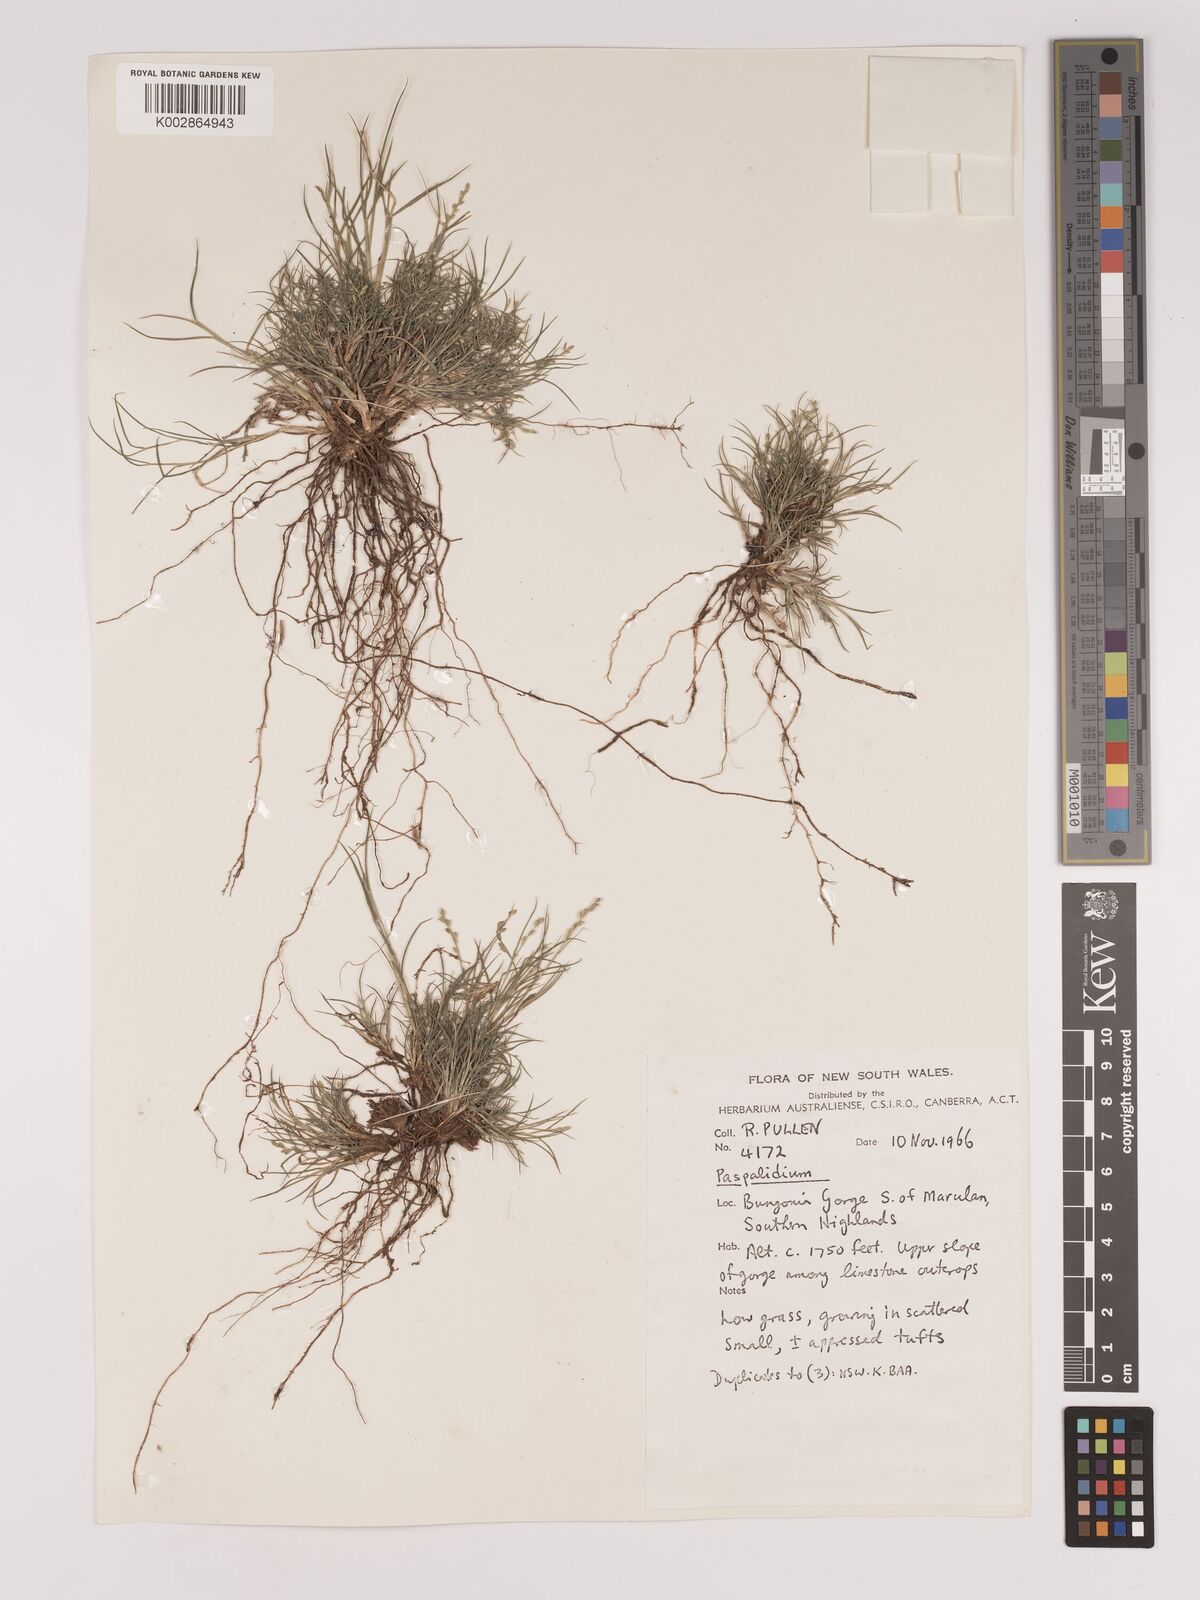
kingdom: Plantae
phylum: Tracheophyta
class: Liliopsida
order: Poales
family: Poaceae
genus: Setaria
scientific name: Setaria
